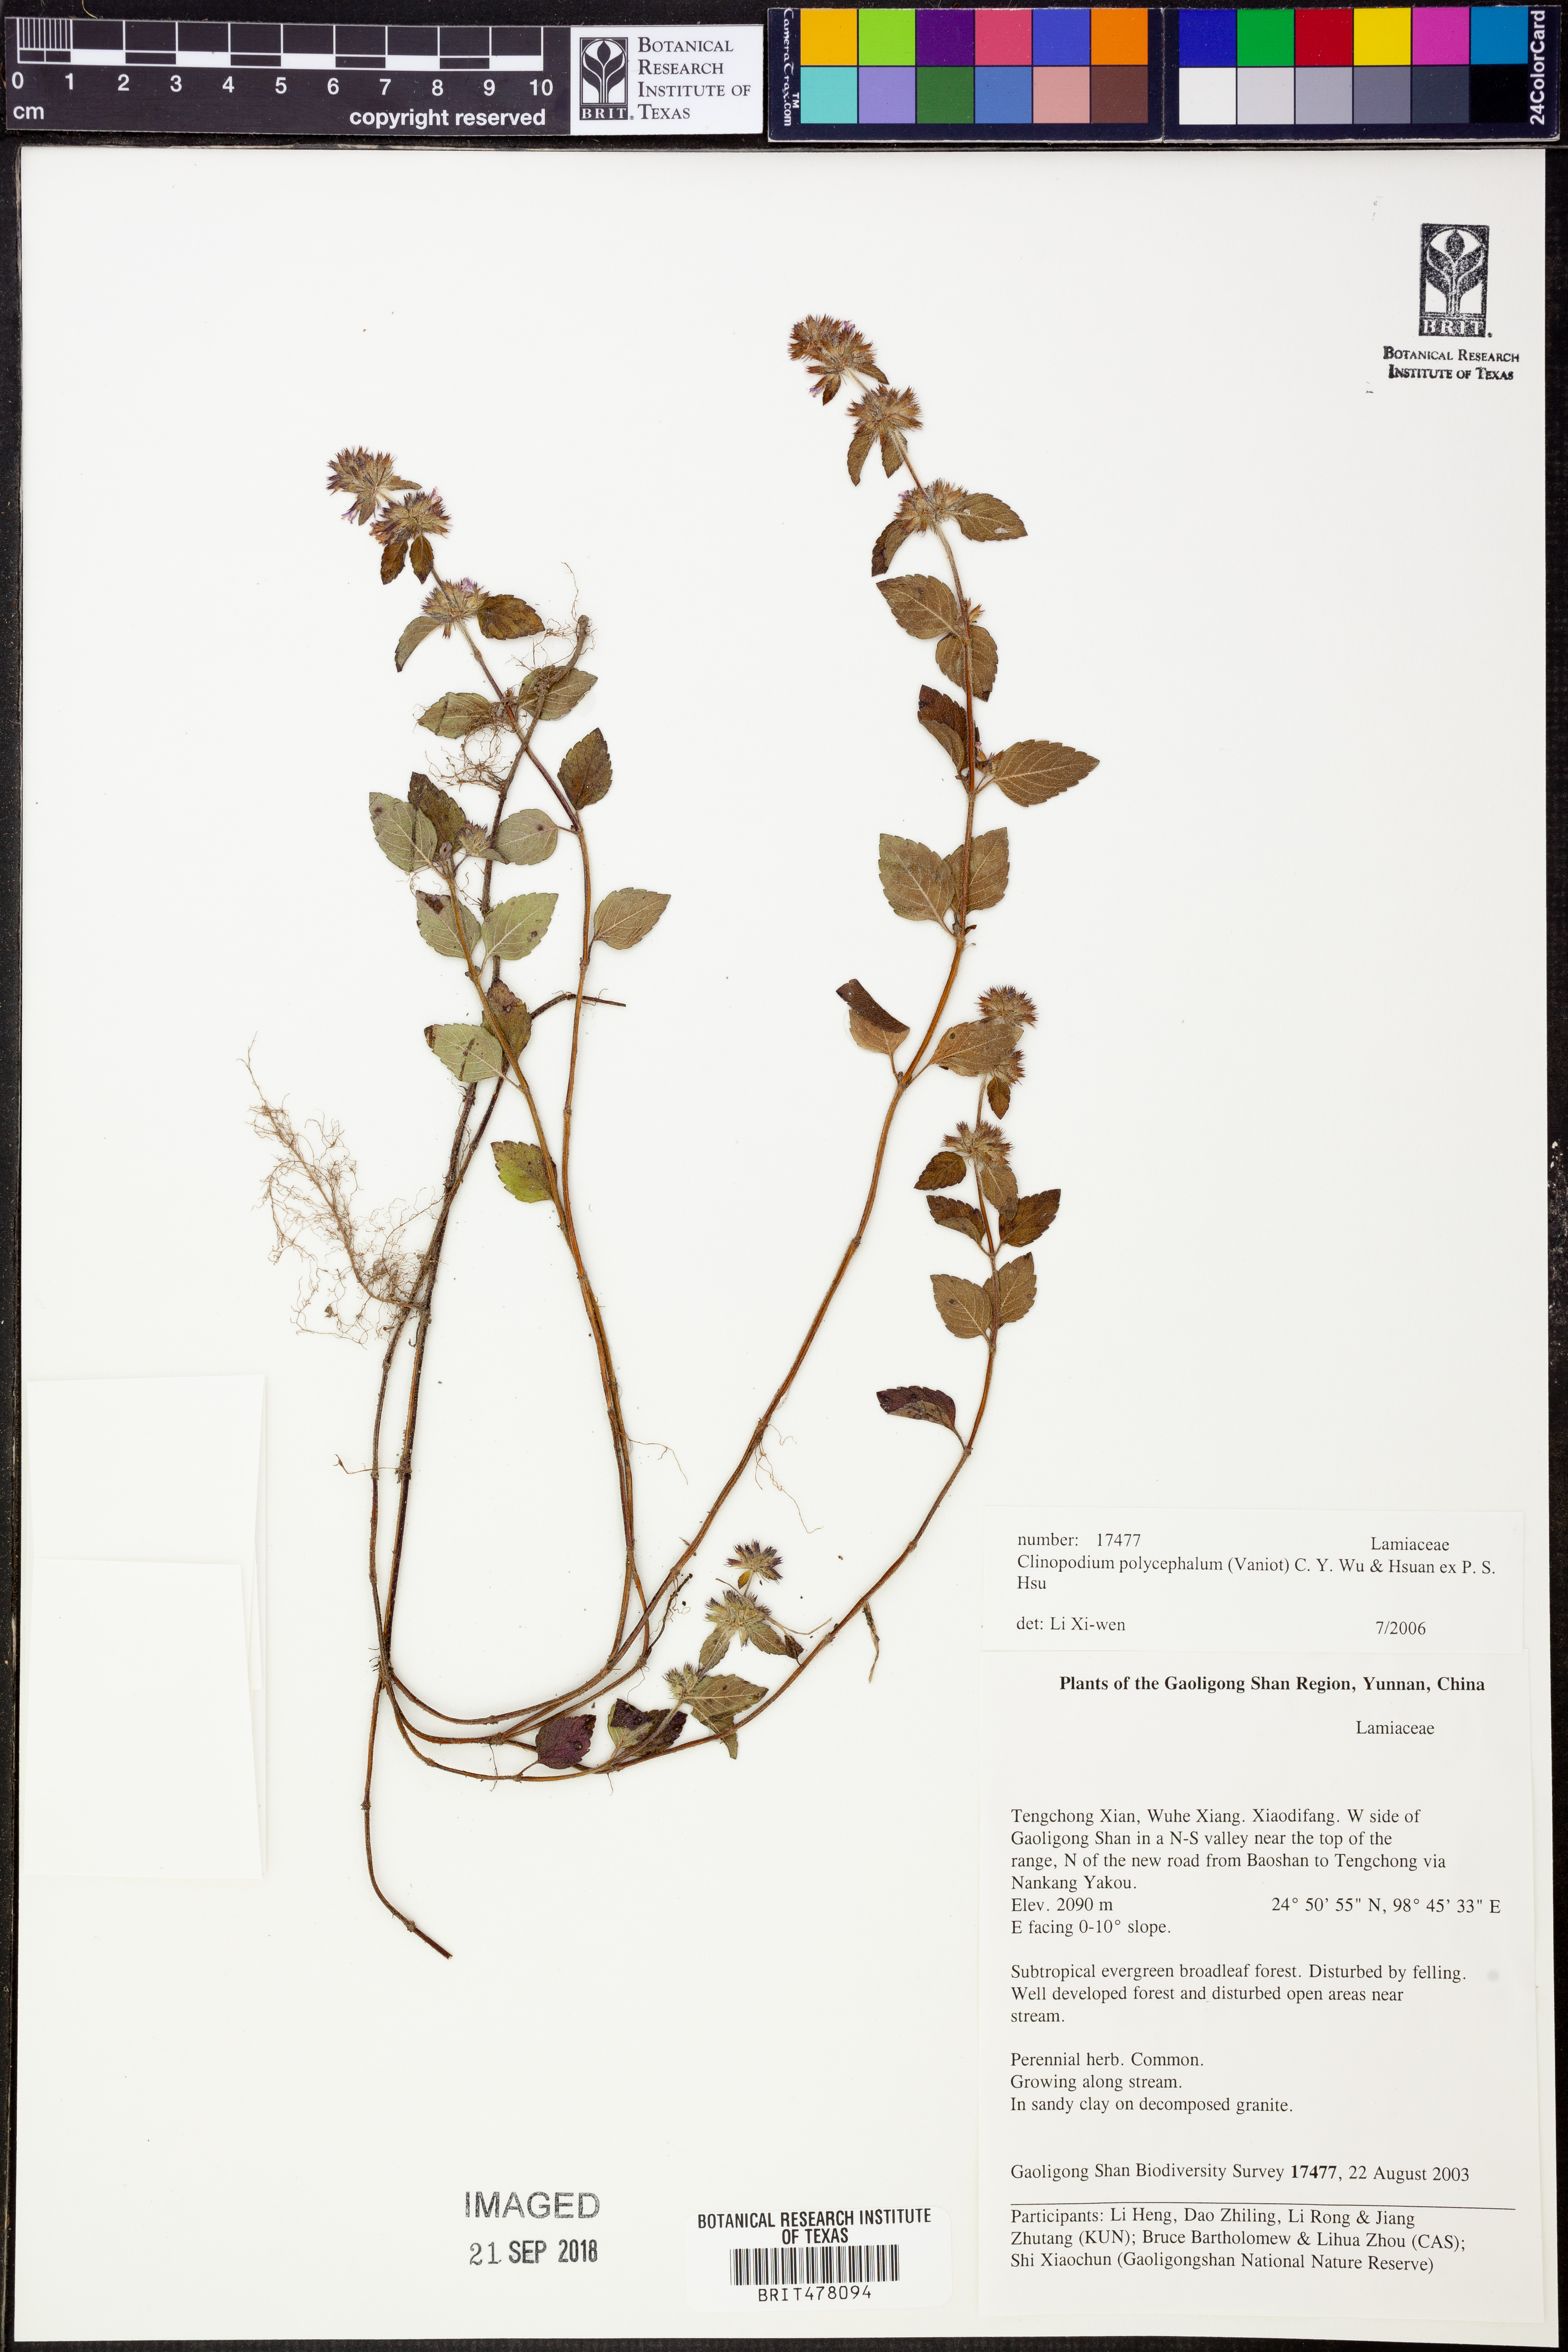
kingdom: Plantae
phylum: Tracheophyta
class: Magnoliopsida
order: Lamiales
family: Lamiaceae
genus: Clinopodium
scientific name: Clinopodium polycephalum
